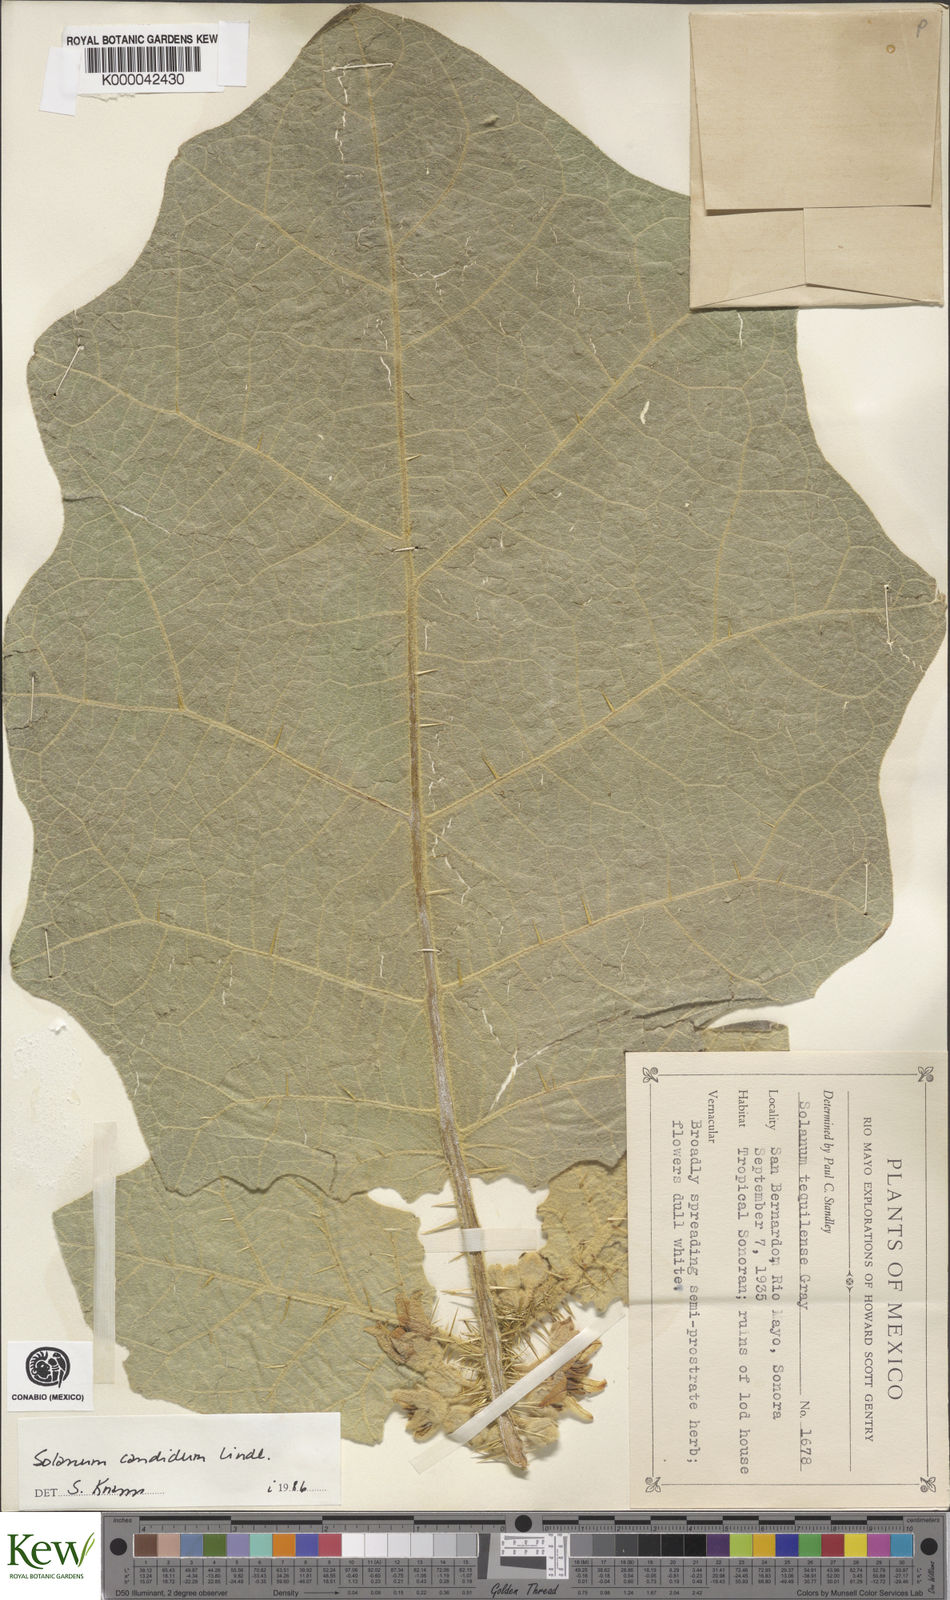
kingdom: Plantae
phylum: Tracheophyta
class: Magnoliopsida
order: Solanales
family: Solanaceae
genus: Solanum
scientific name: Solanum candidum
